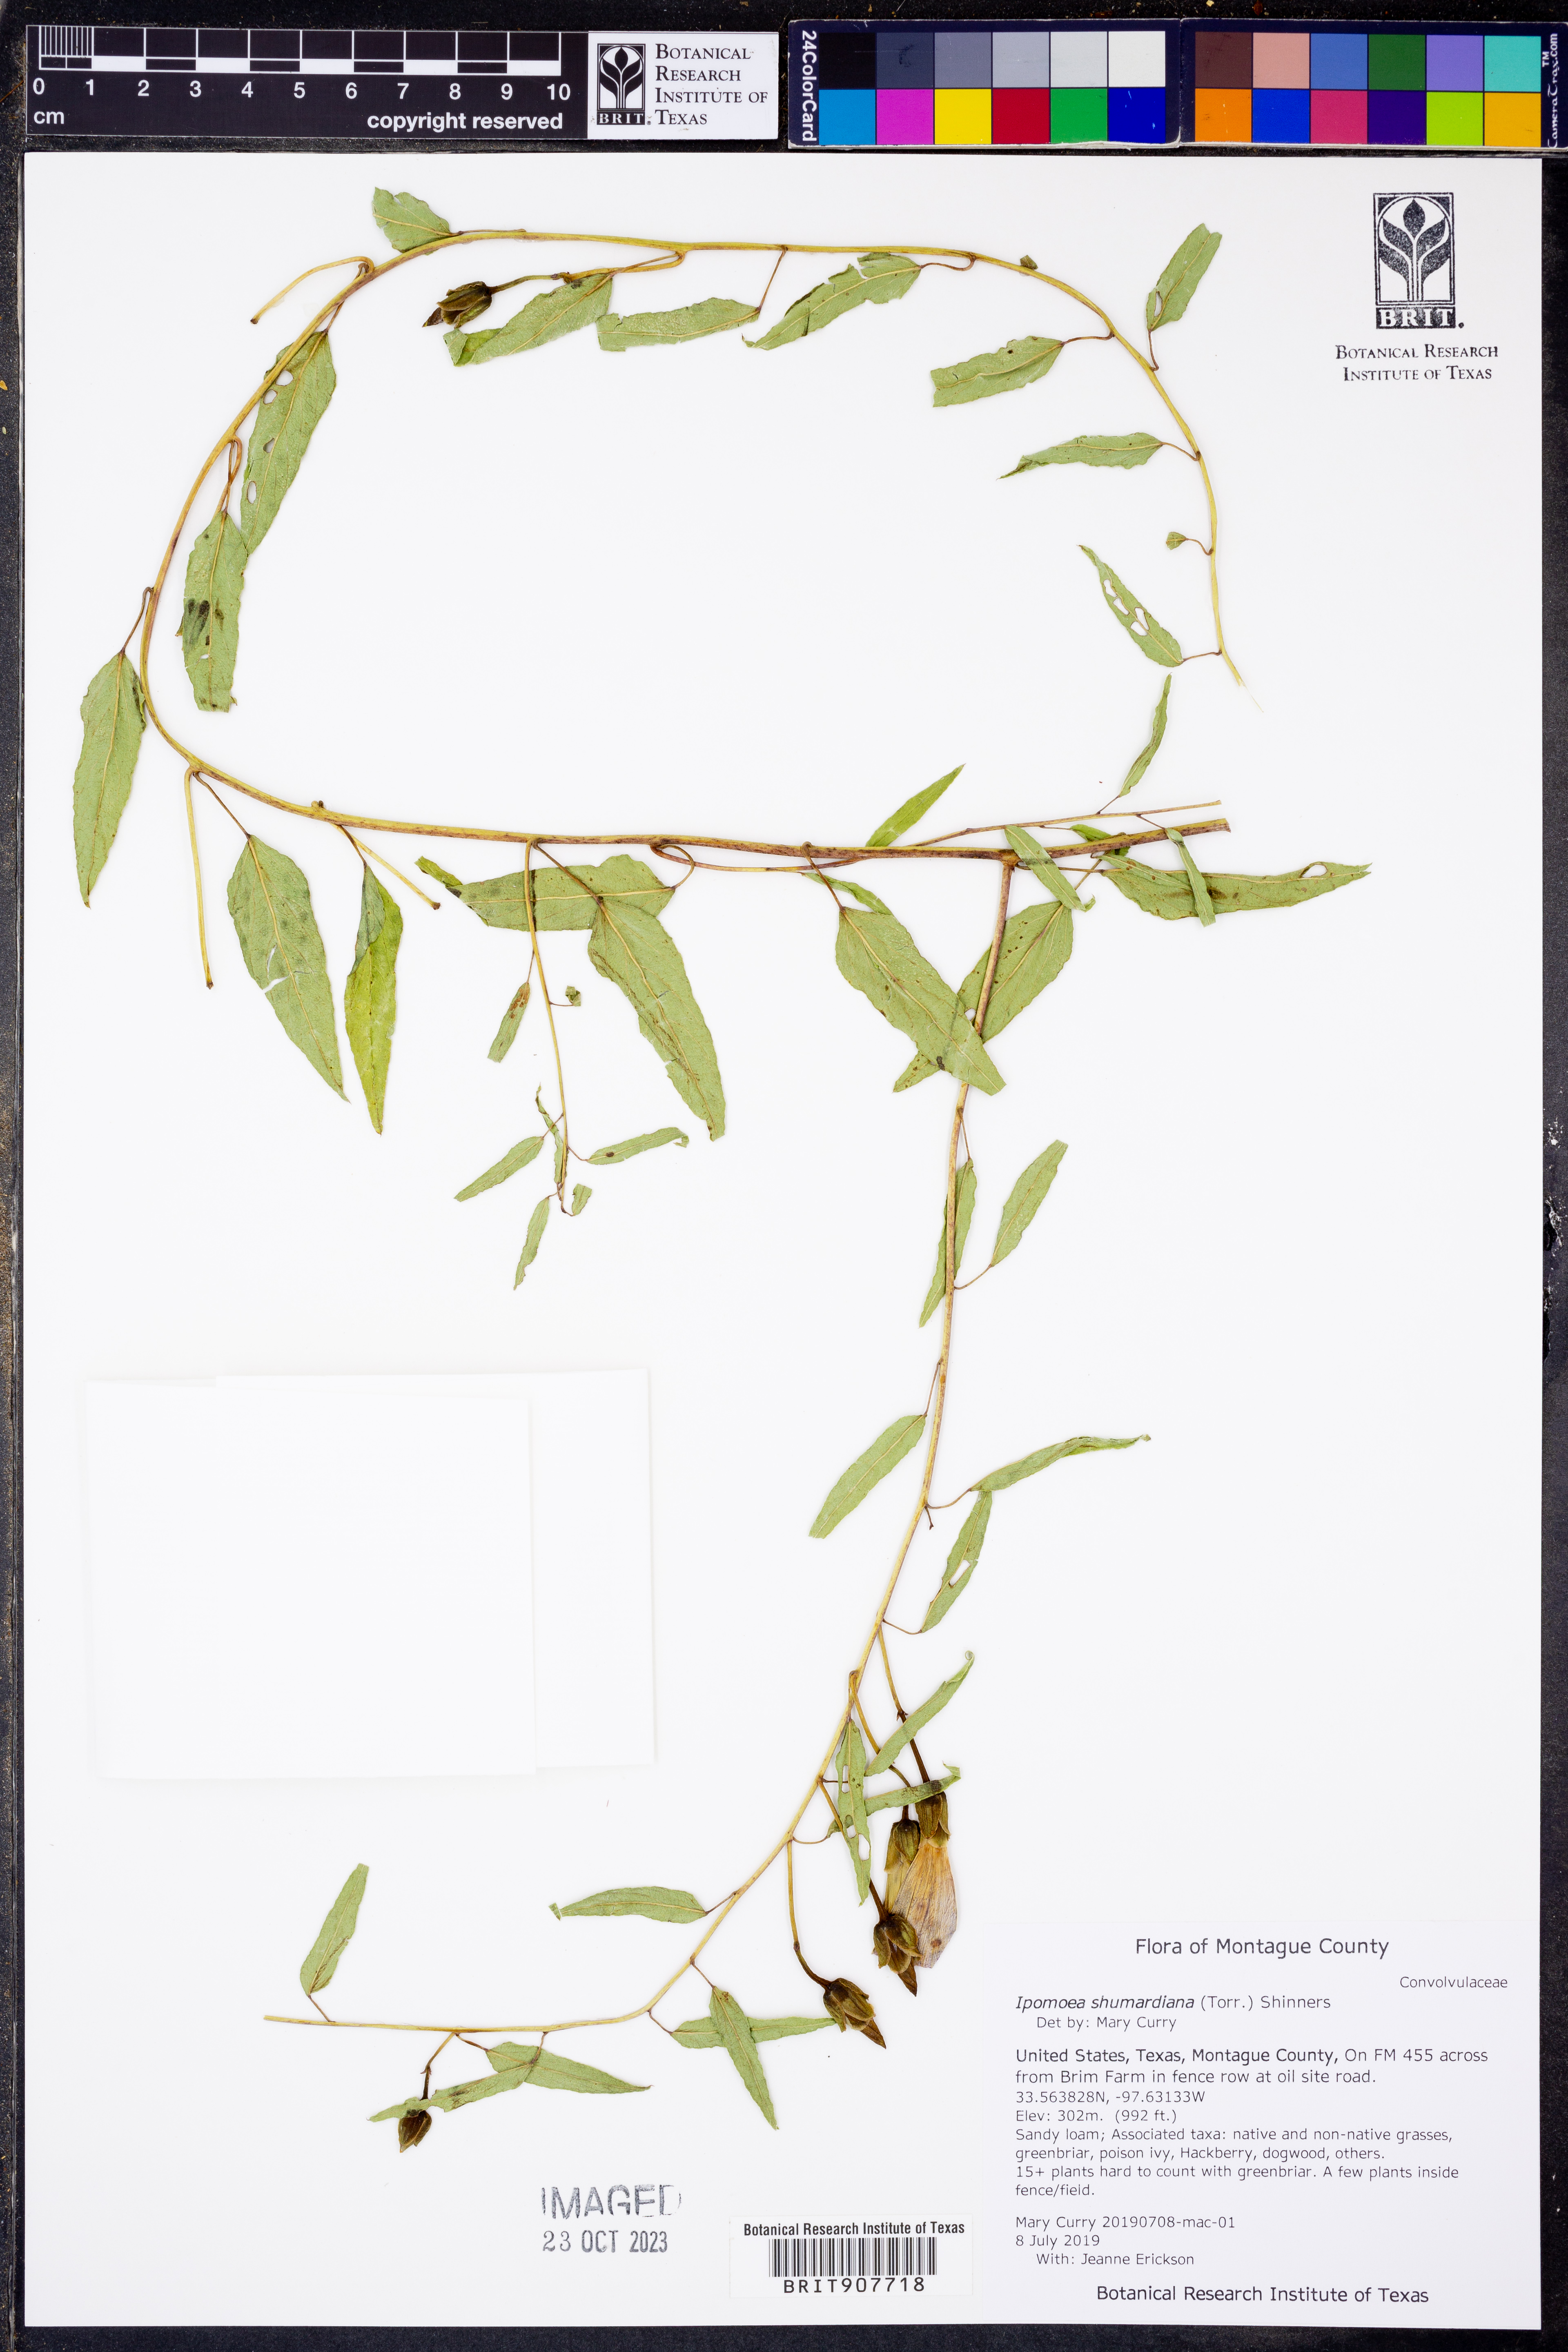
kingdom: Plantae
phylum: Tracheophyta
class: Magnoliopsida
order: Solanales
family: Convolvulaceae
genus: Ipomoea
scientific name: Ipomoea shumardiana
